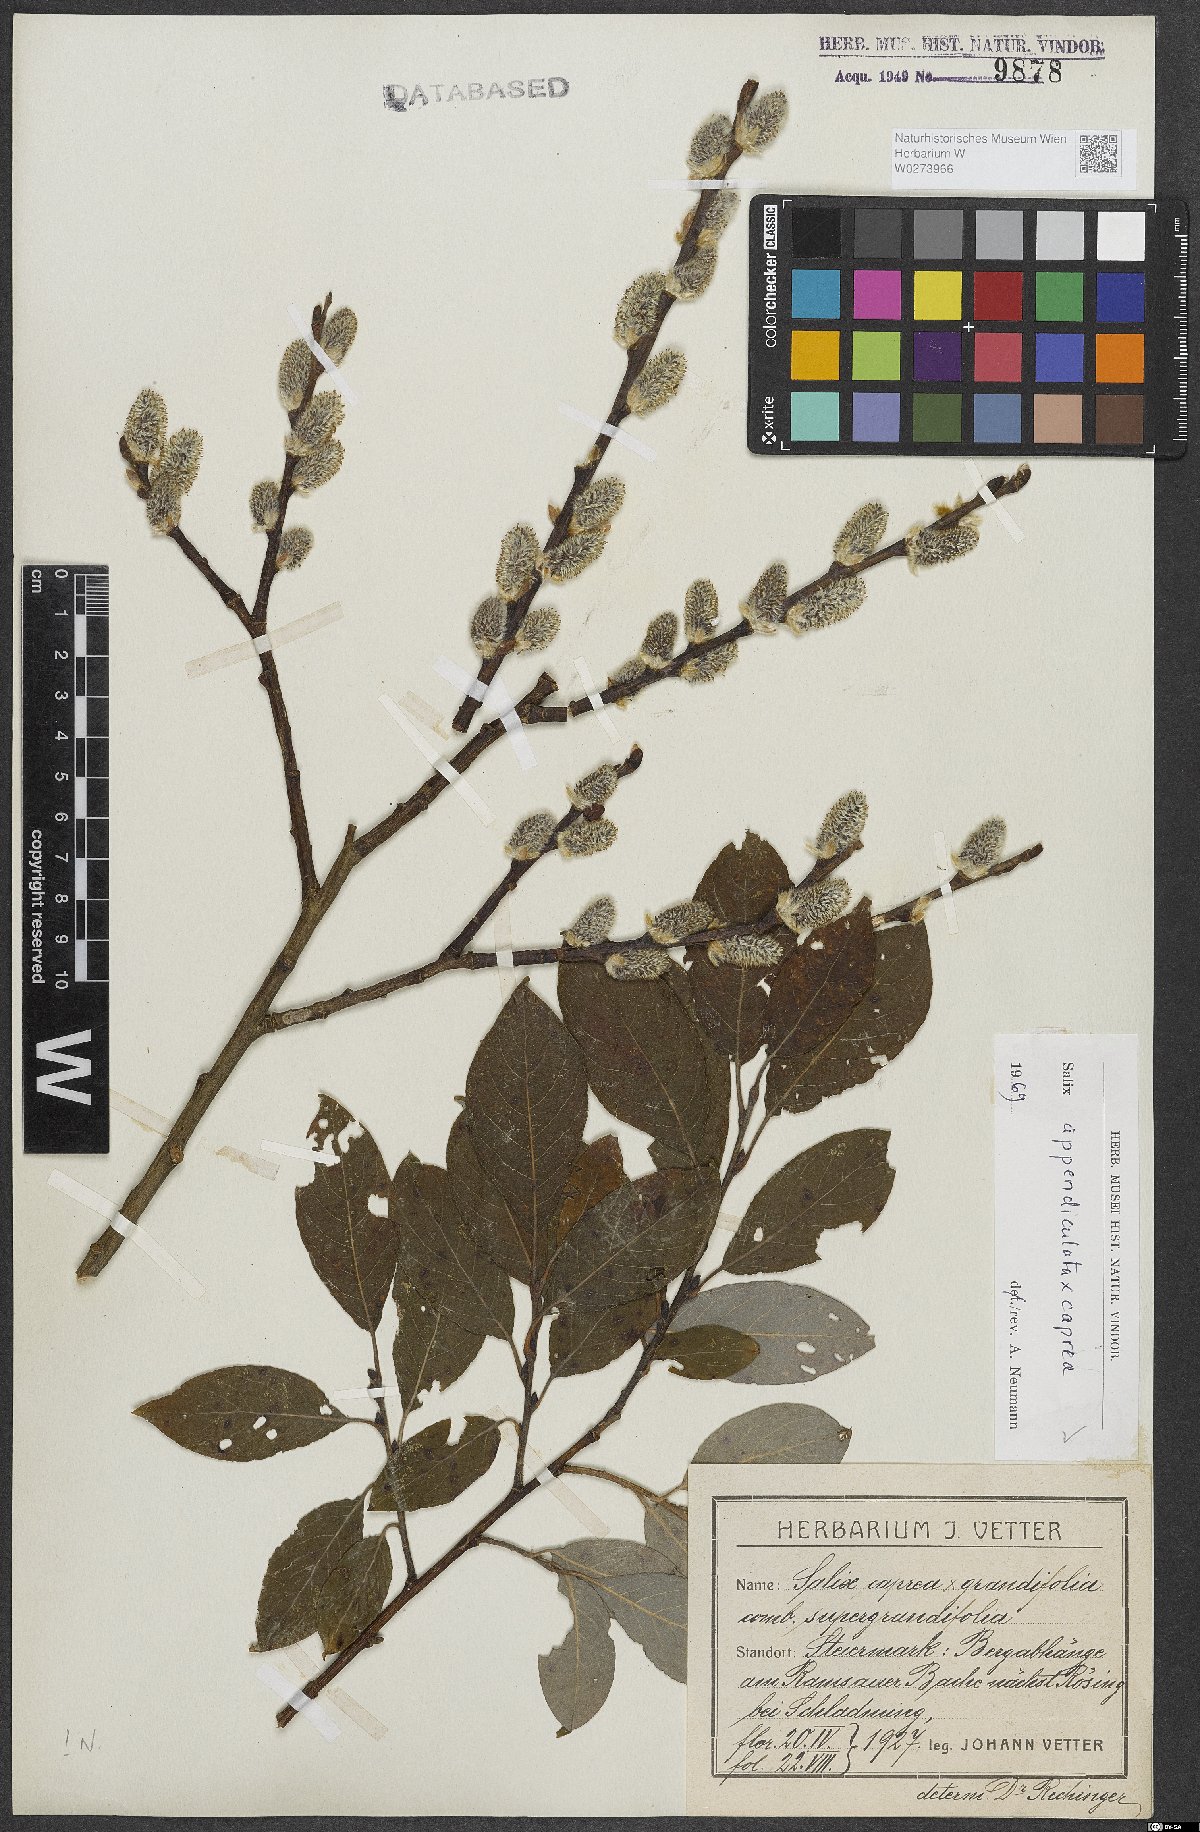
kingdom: Plantae
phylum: Tracheophyta
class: Magnoliopsida
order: Malpighiales
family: Salicaceae
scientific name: Salicaceae
